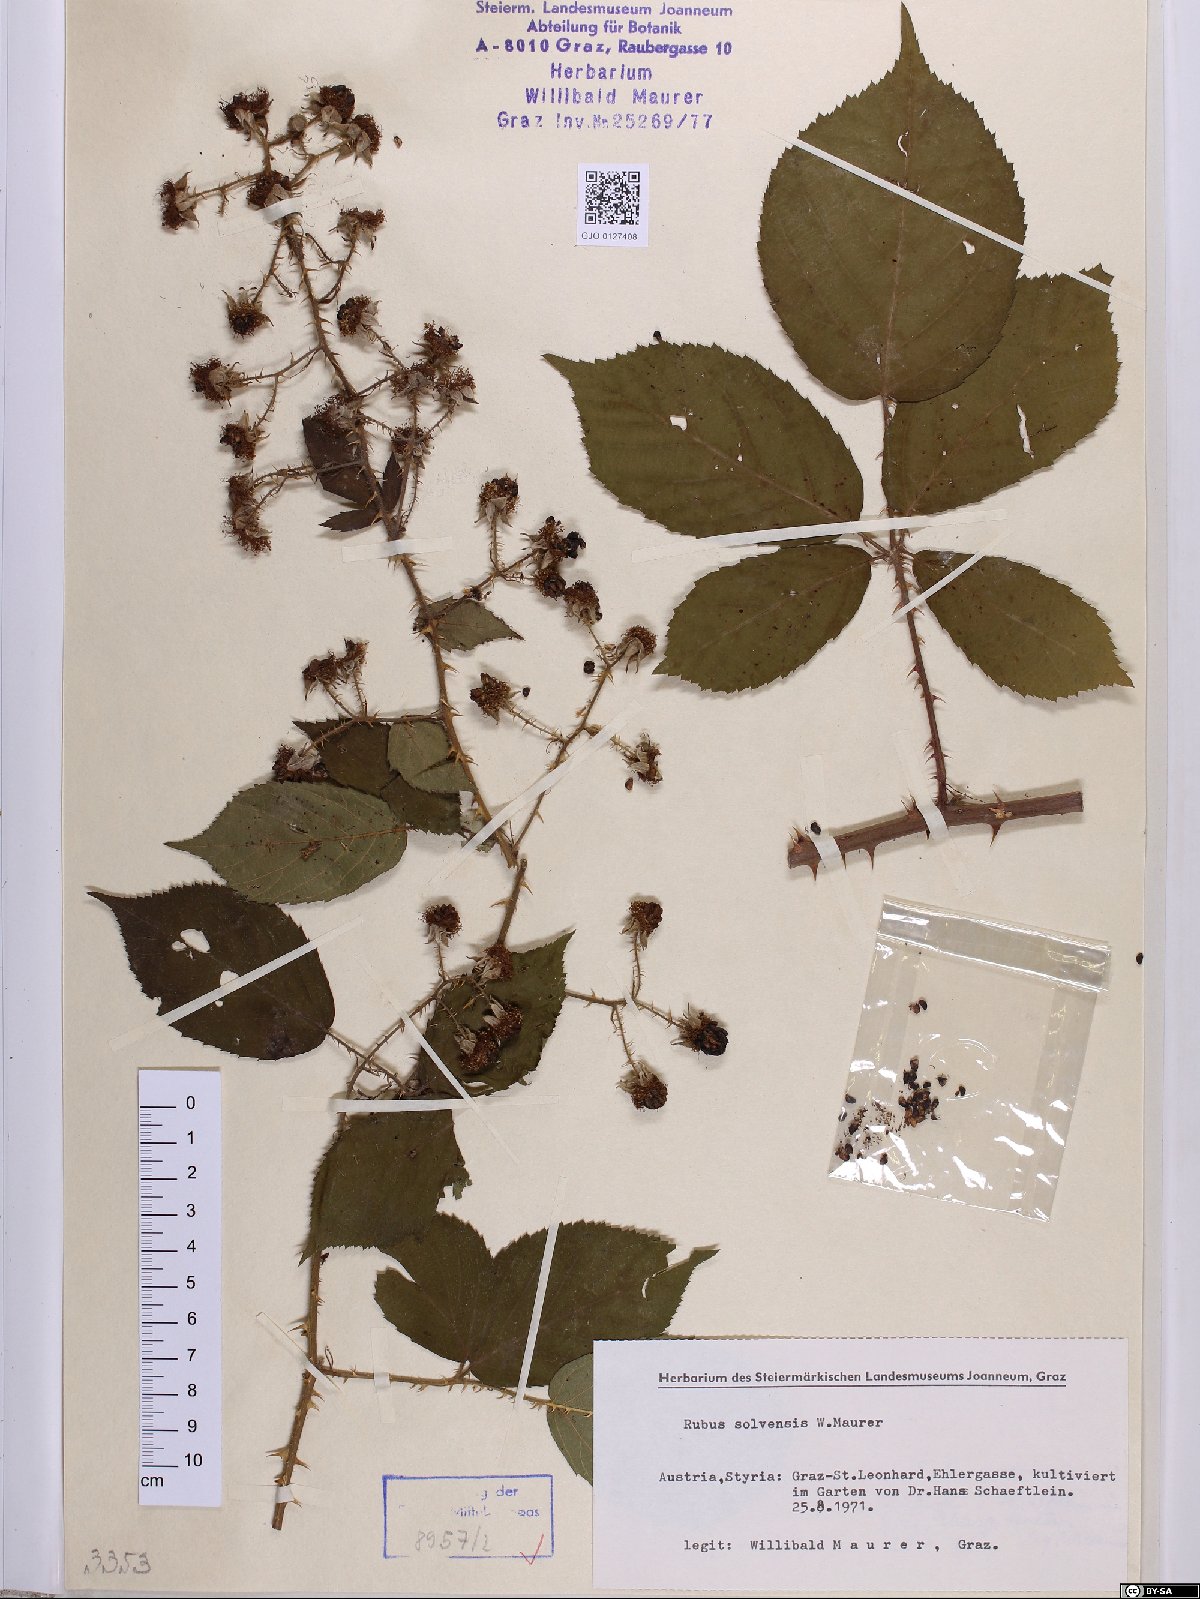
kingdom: Plantae
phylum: Tracheophyta
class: Magnoliopsida
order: Rosales
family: Rosaceae
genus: Rubus
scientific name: Rubus solvensis
